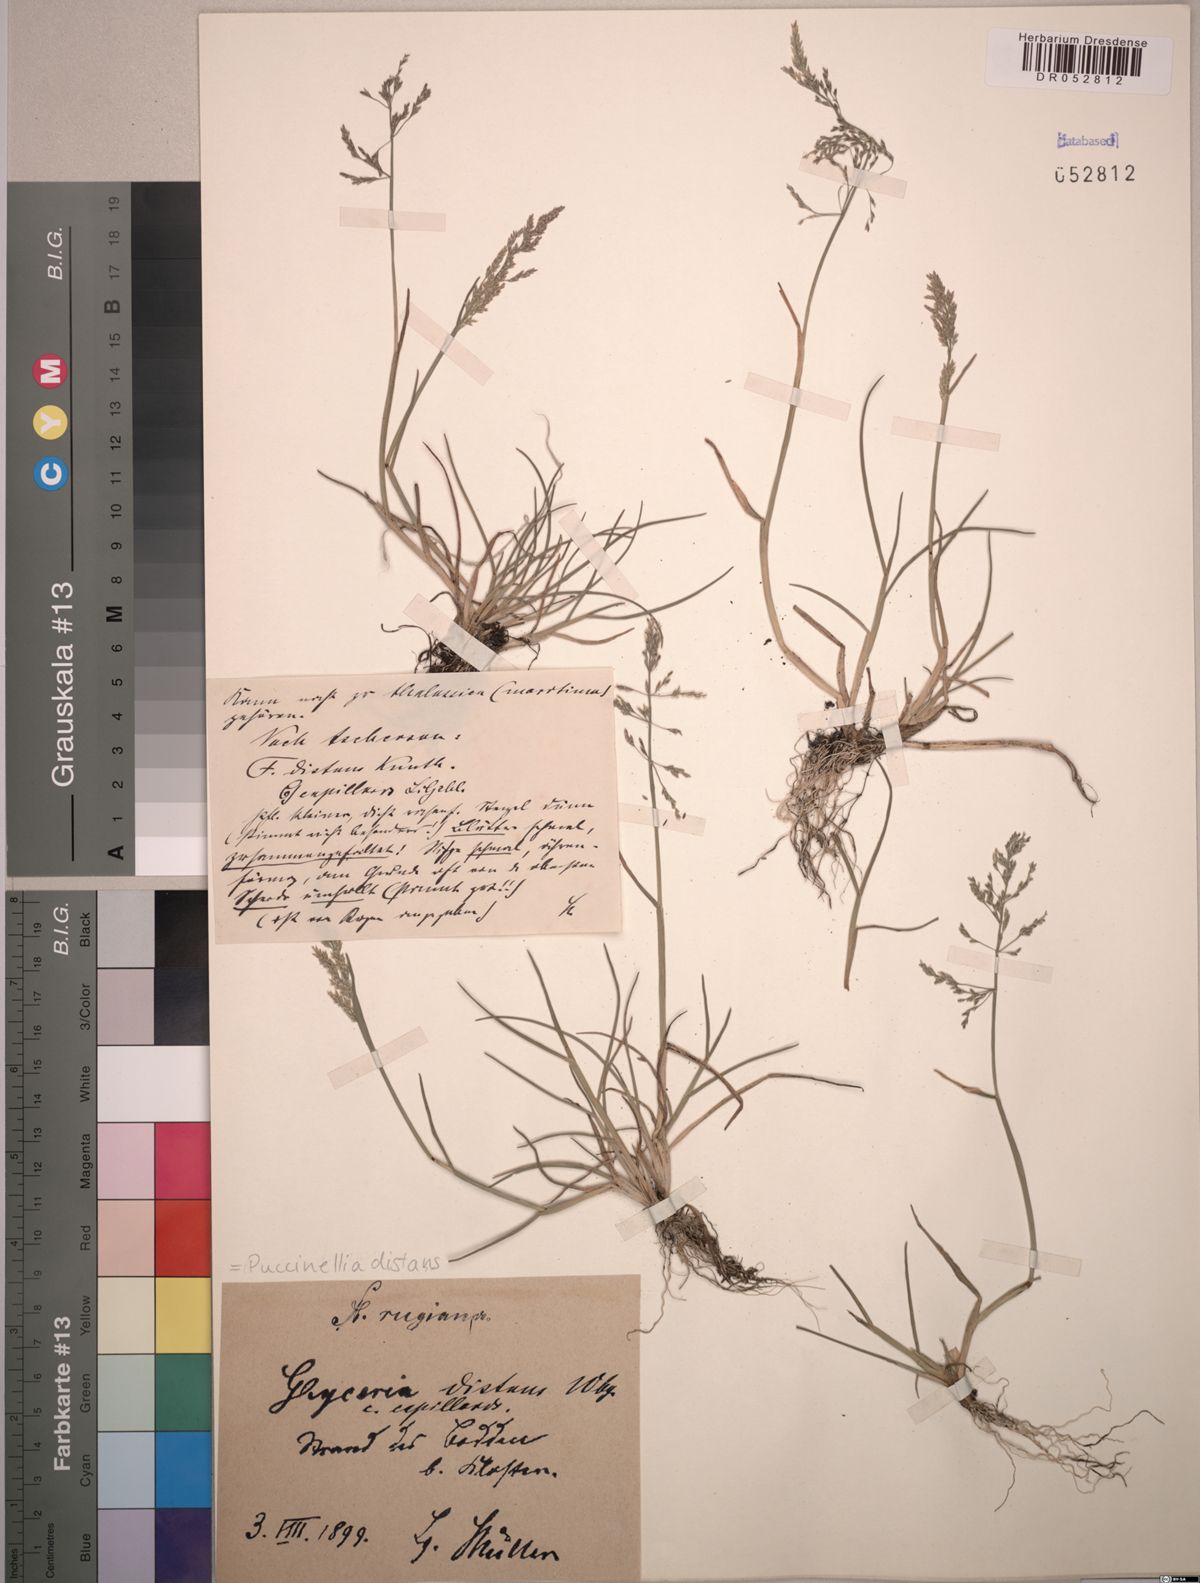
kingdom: Plantae
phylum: Tracheophyta
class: Liliopsida
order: Poales
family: Poaceae
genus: Puccinellia
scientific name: Puccinellia distans
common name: Weeping alkaligrass
